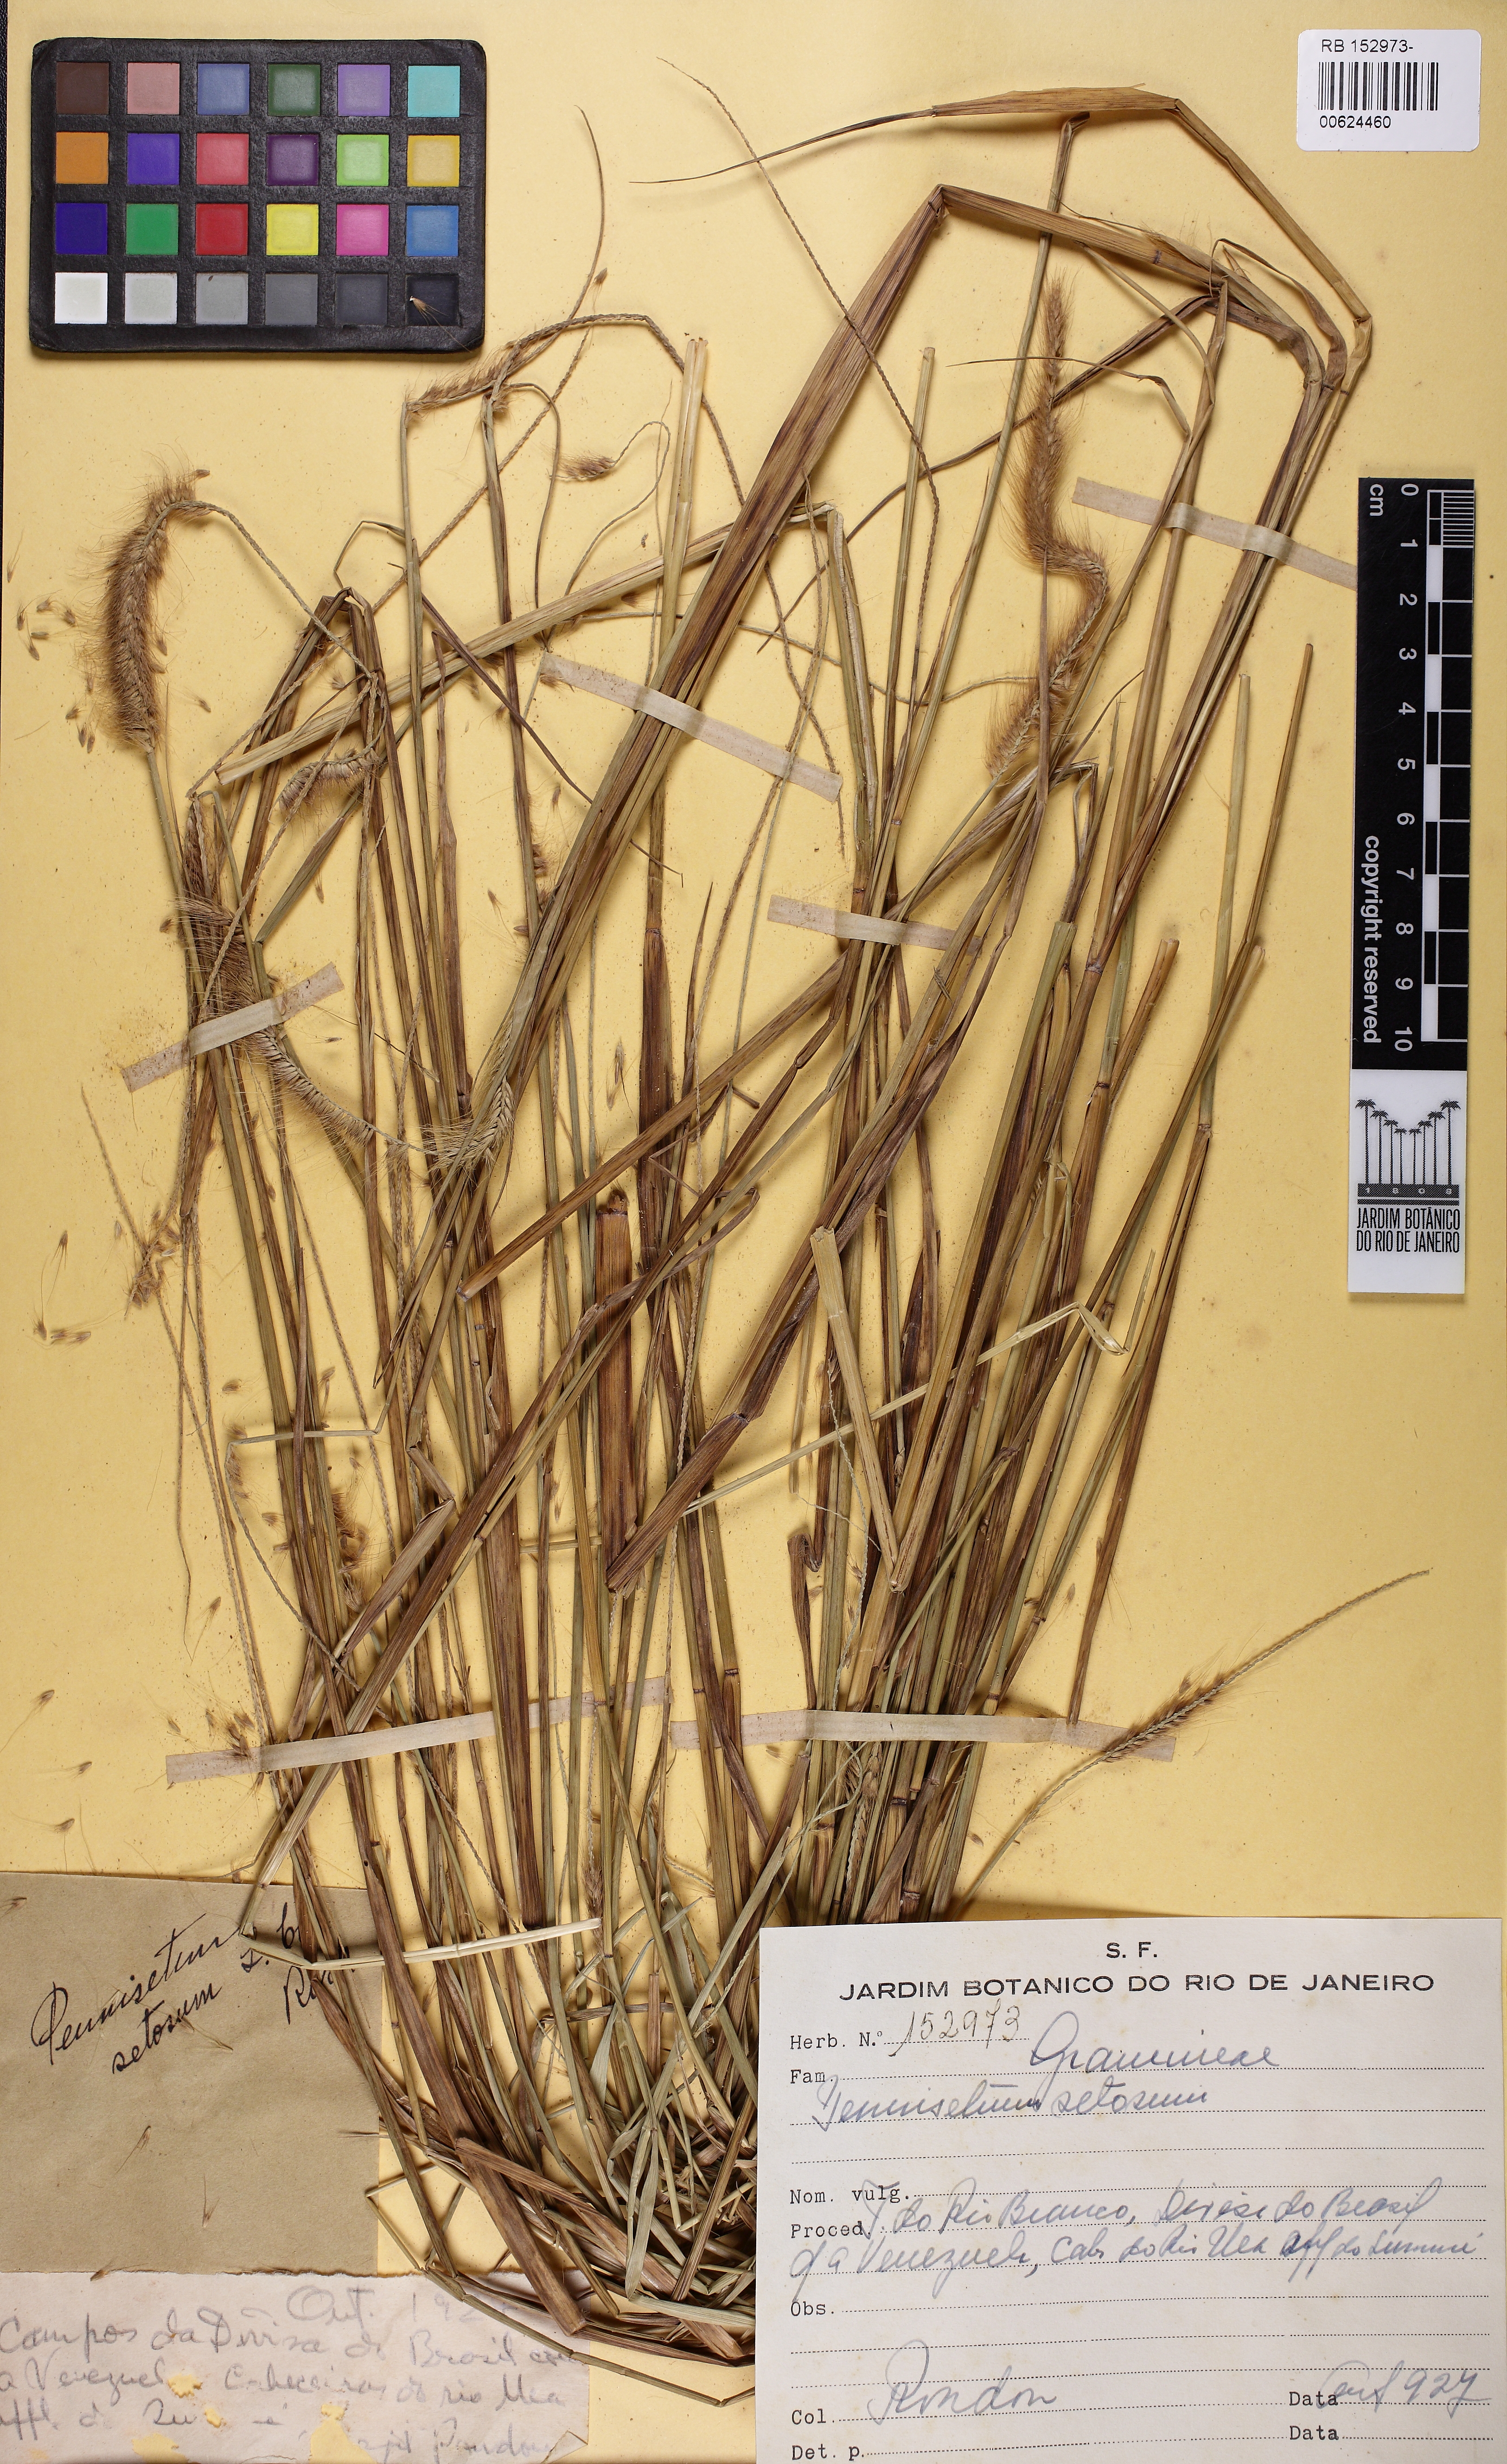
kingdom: Plantae
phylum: Tracheophyta
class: Liliopsida
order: Poales
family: Poaceae
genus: Cenchrus
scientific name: Cenchrus setosus
